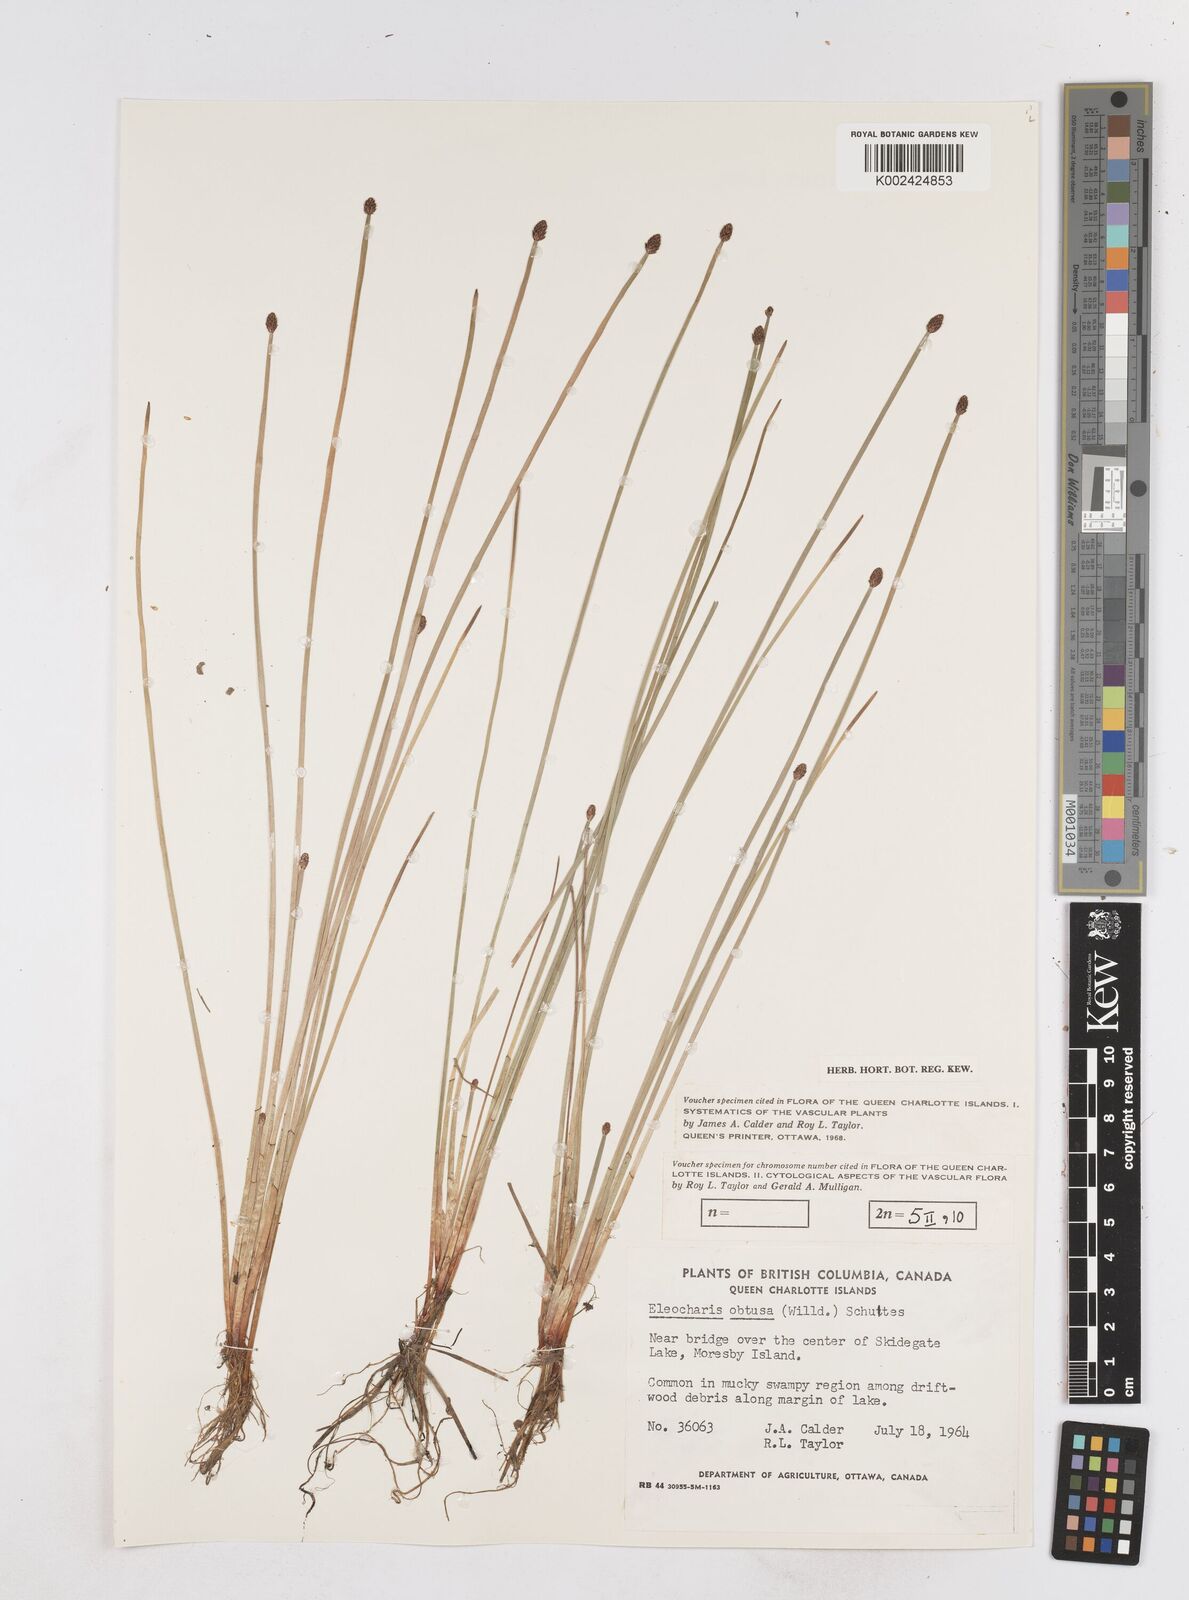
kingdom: Plantae
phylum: Tracheophyta
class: Liliopsida
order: Poales
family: Cyperaceae
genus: Eleocharis
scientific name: Eleocharis obtusa
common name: Blunt spikerush
